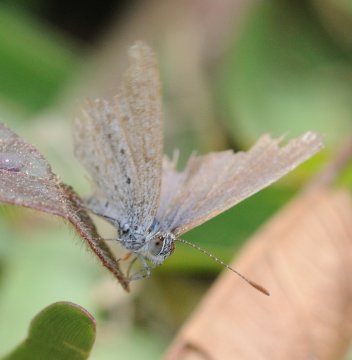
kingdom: Animalia
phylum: Arthropoda
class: Insecta
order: Lepidoptera
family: Lycaenidae
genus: Zizeeria
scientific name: Zizeeria knysna
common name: Dark Grass Blue
